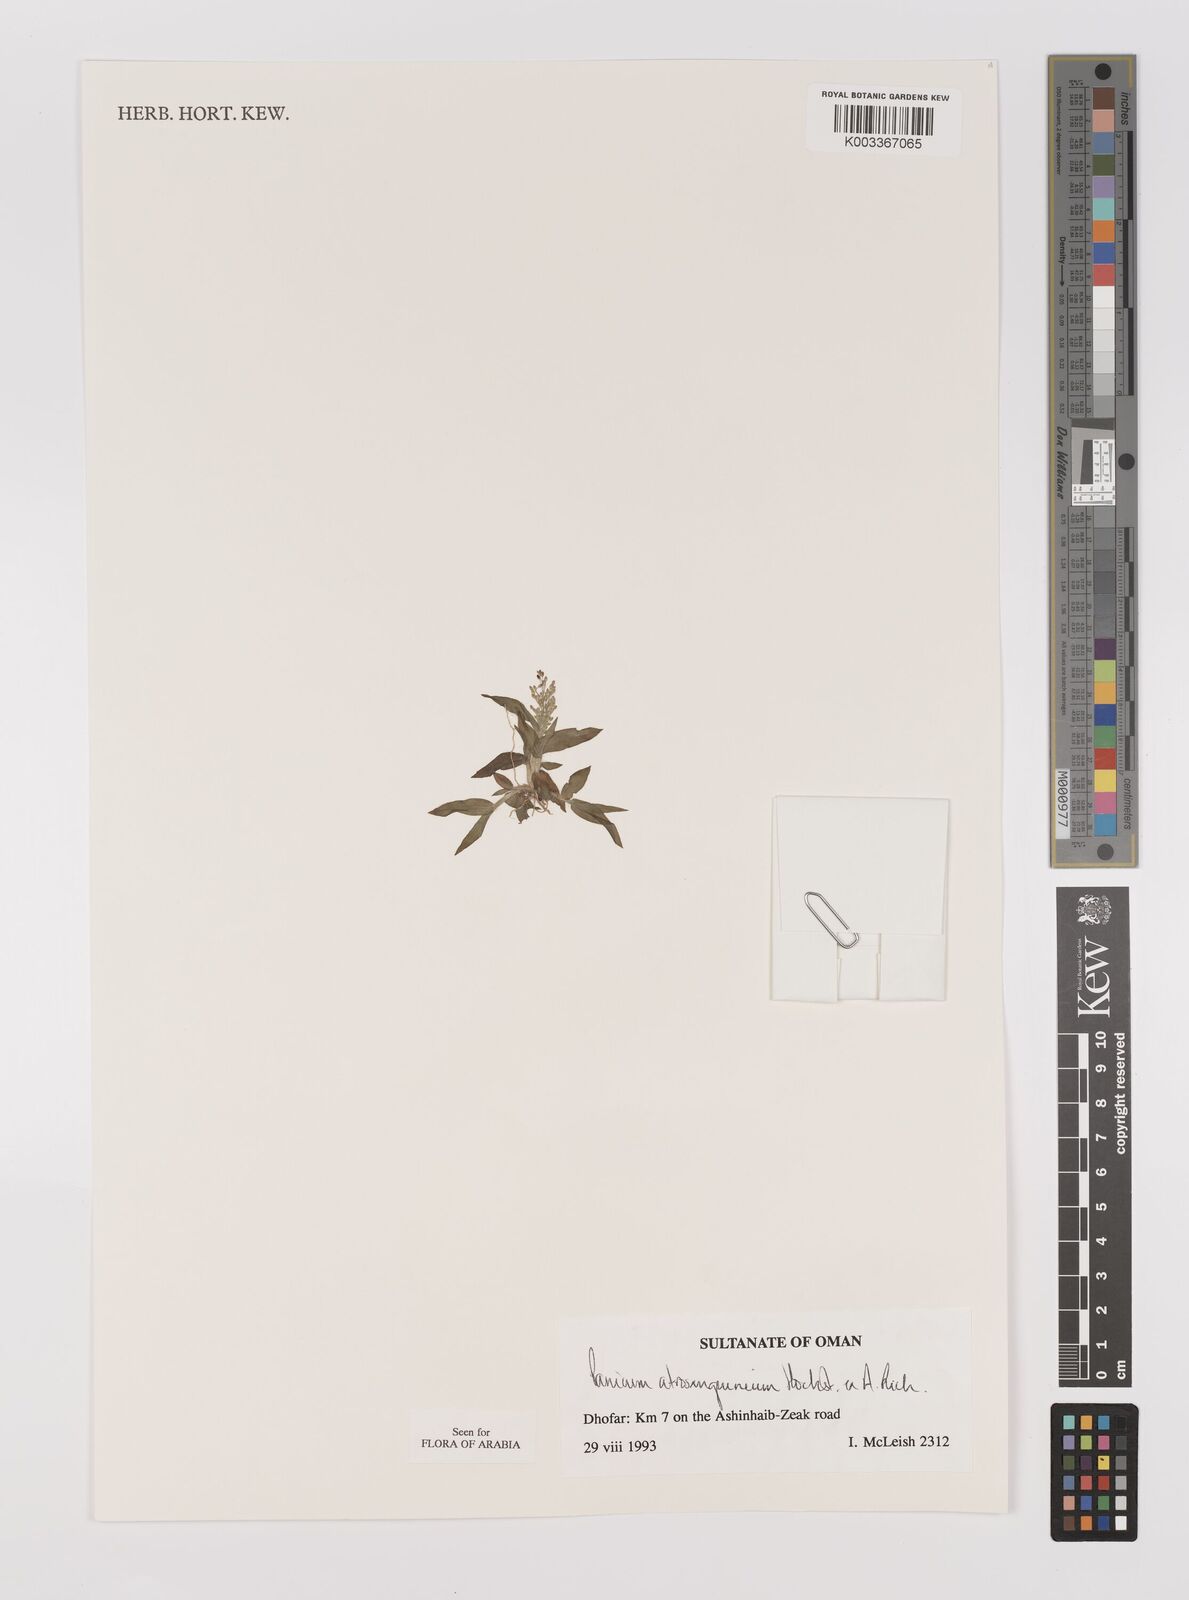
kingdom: Plantae
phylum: Tracheophyta
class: Liliopsida
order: Poales
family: Poaceae
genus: Panicum
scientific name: Panicum atrosanguineum
